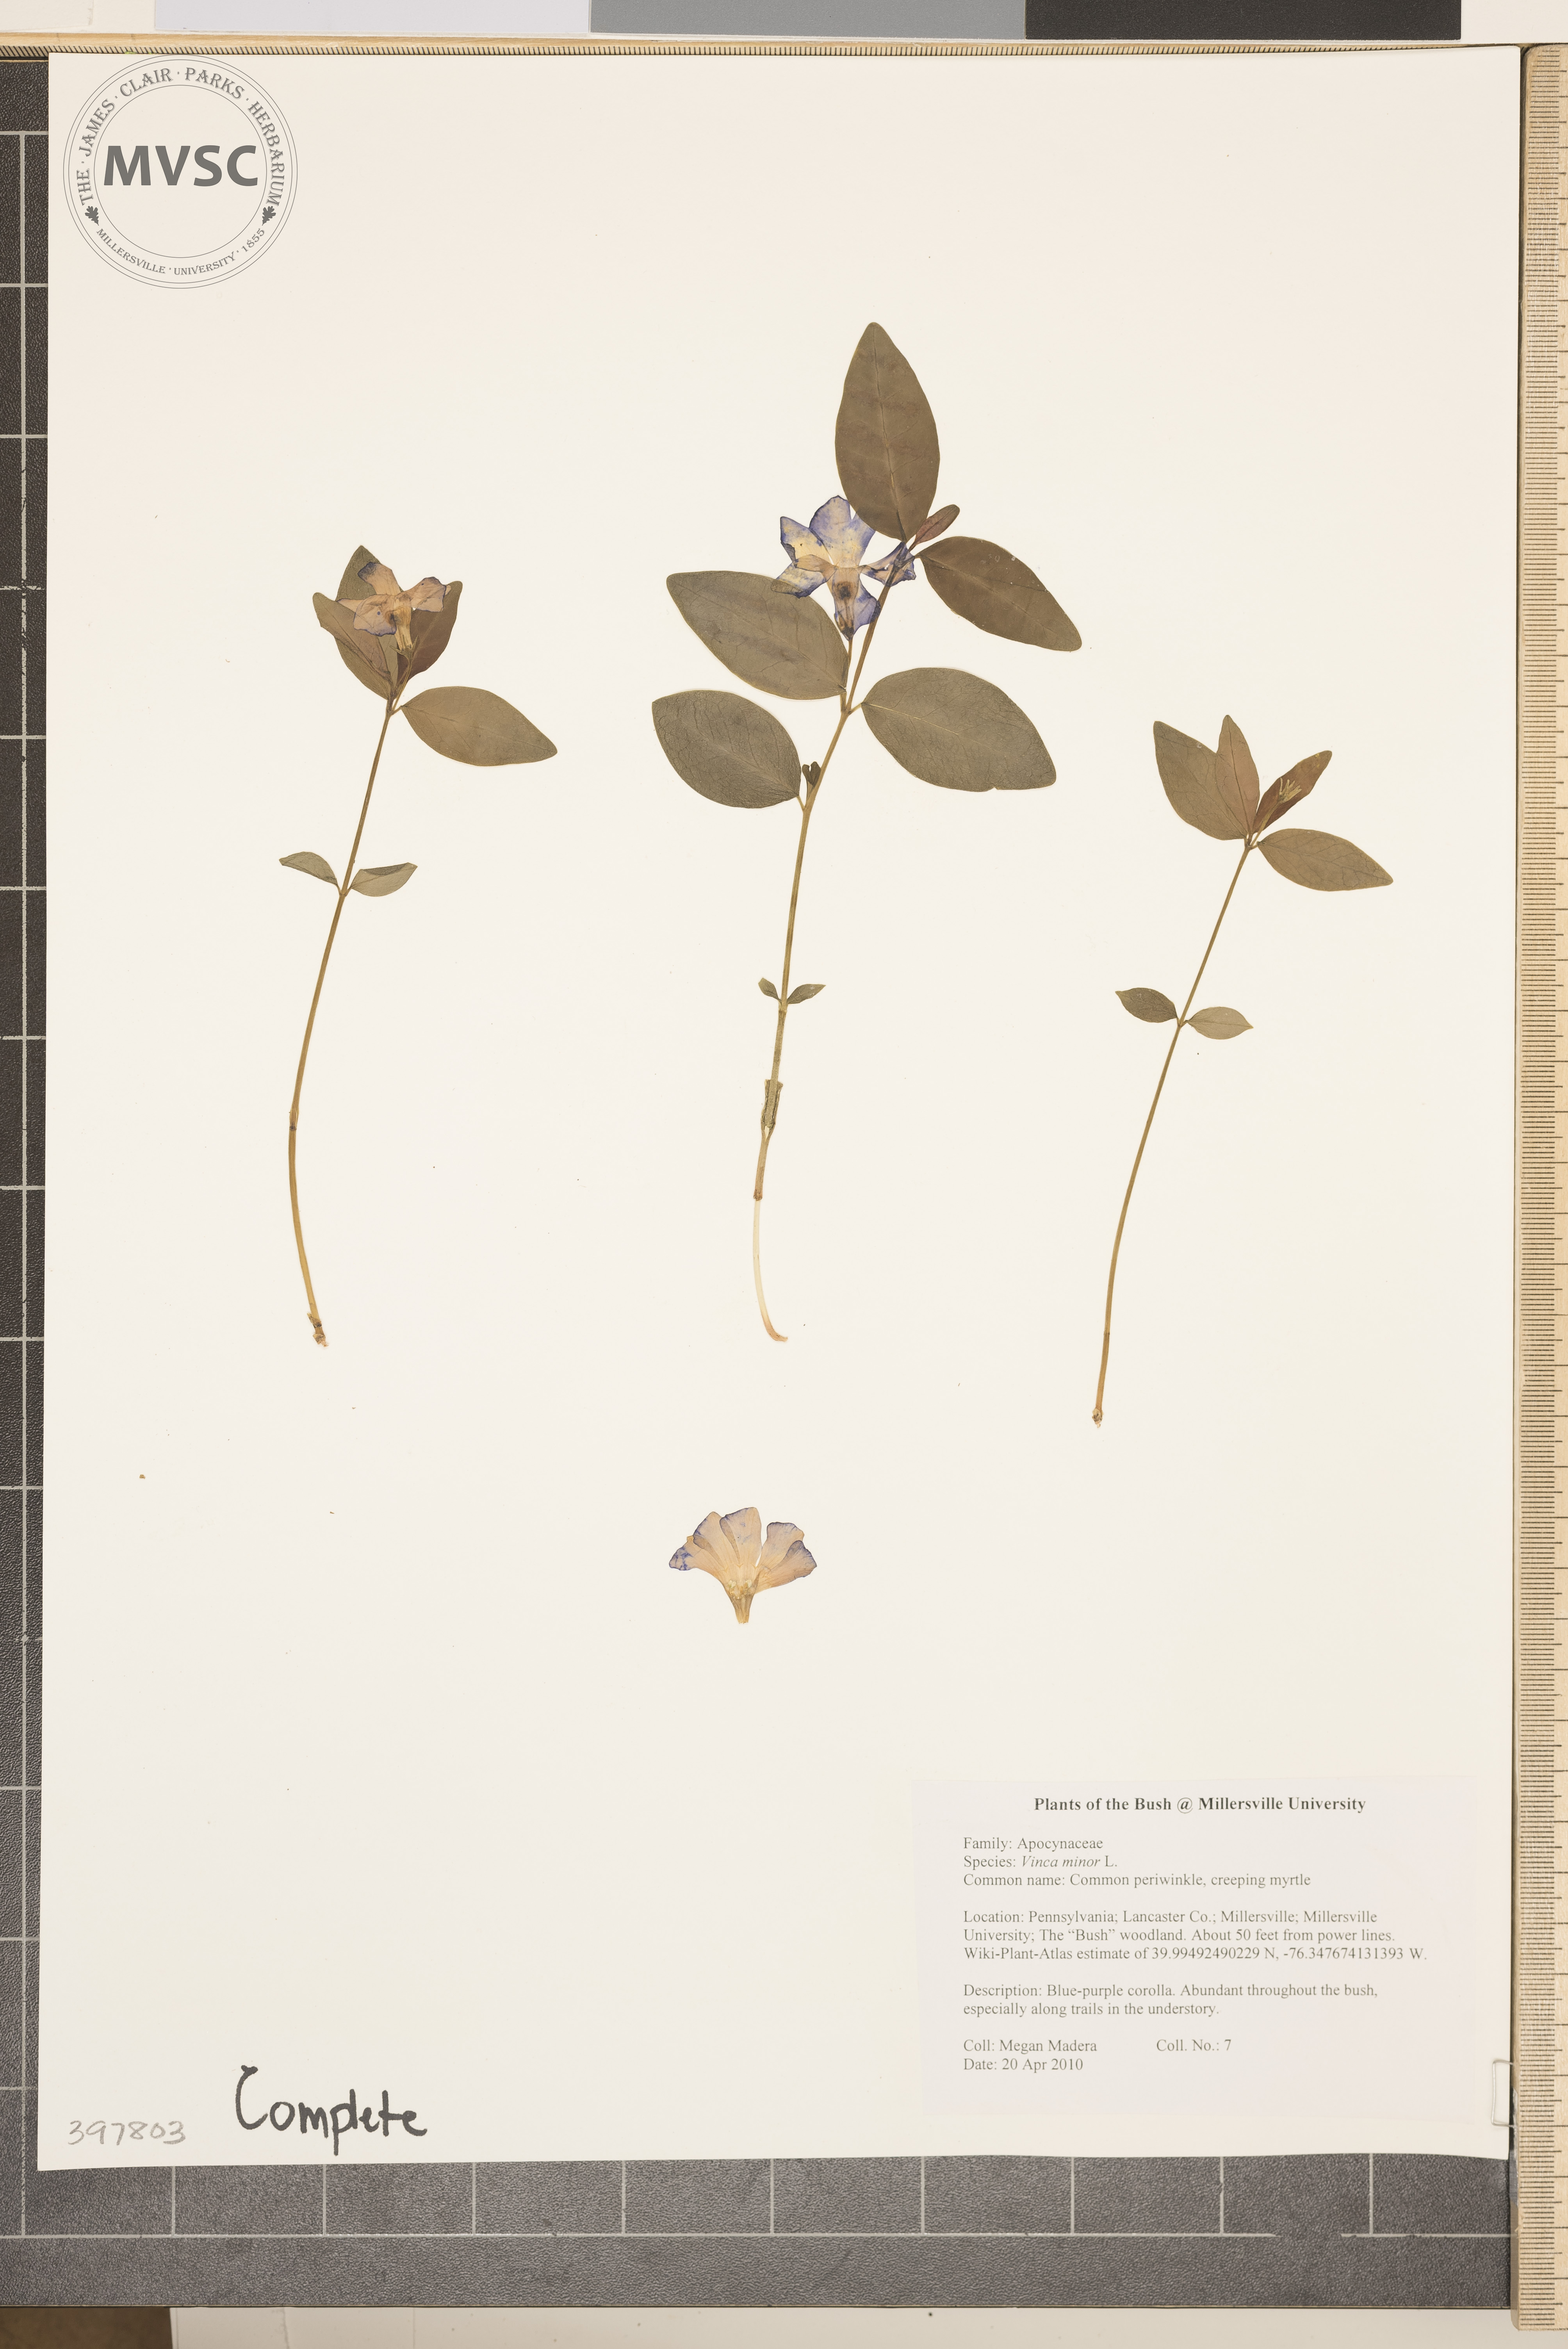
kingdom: Plantae
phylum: Tracheophyta
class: Magnoliopsida
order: Gentianales
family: Apocynaceae
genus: Vinca
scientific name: Vinca minor
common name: Common periwinkle
